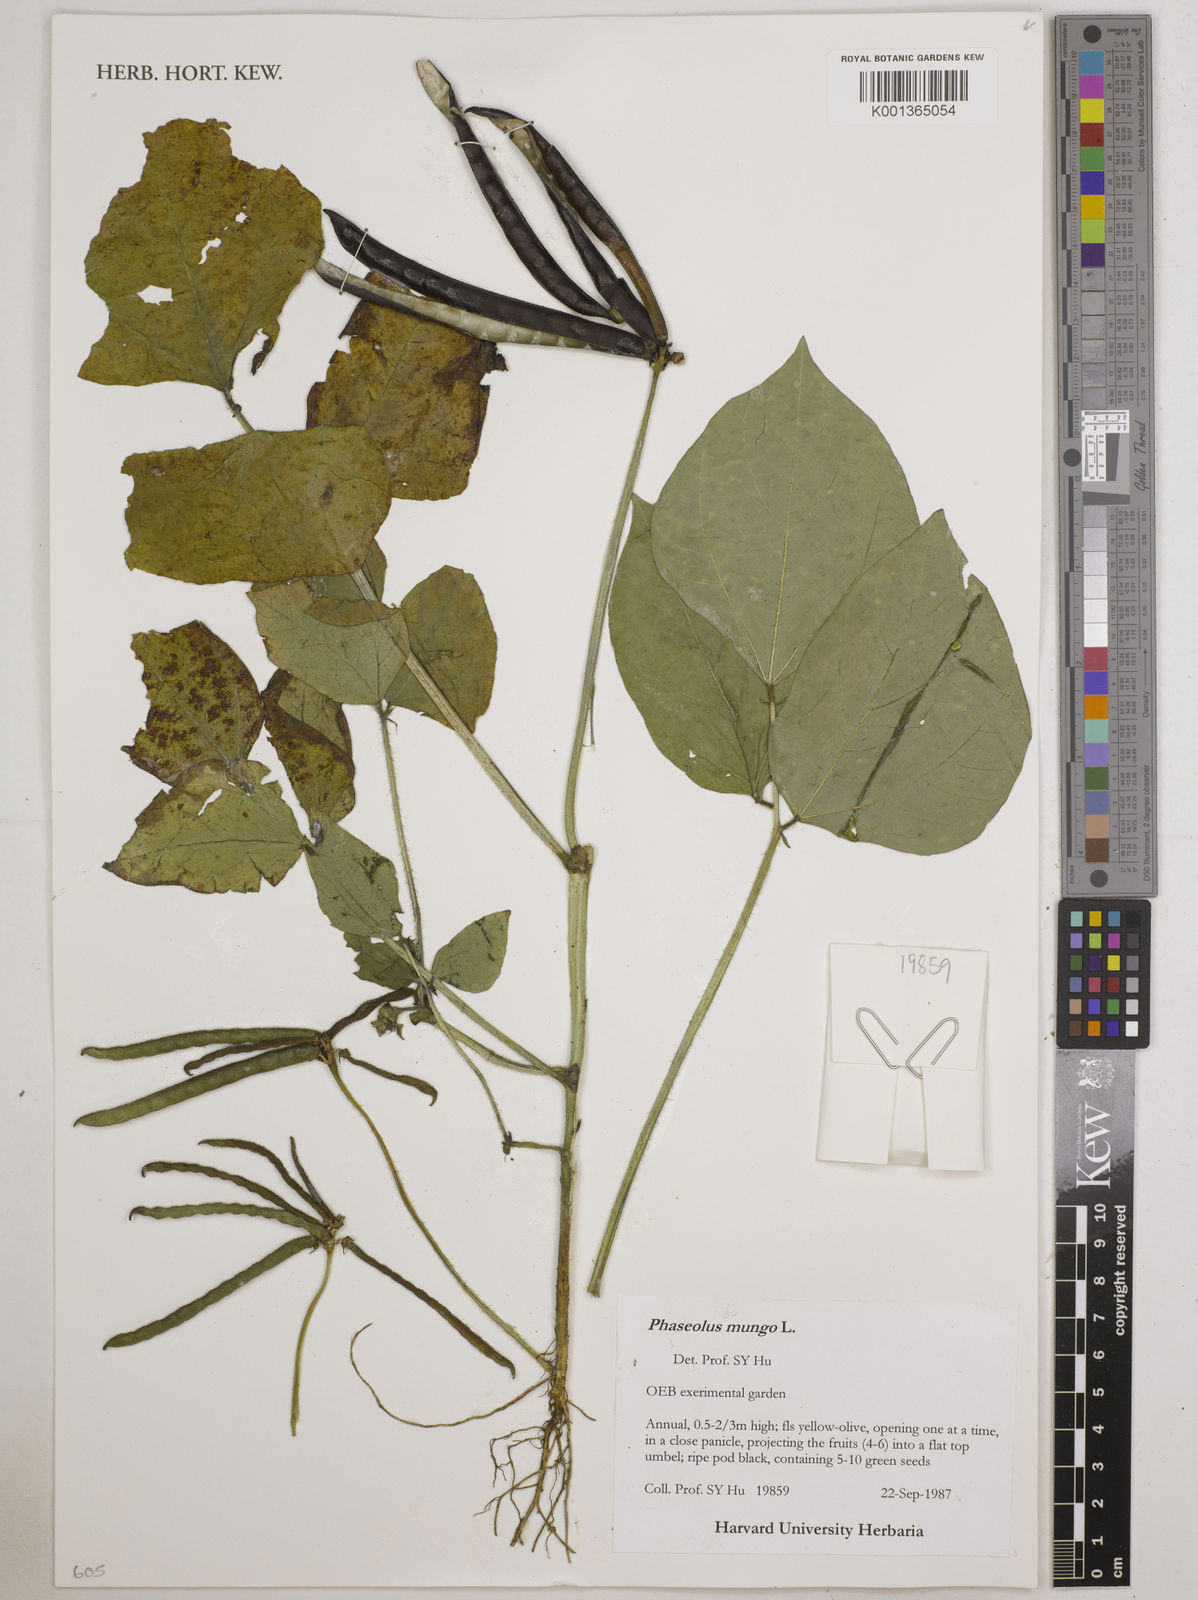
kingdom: Plantae
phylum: Tracheophyta
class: Magnoliopsida
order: Fabales
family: Fabaceae
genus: Vigna
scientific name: Vigna mungo
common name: Black gram
